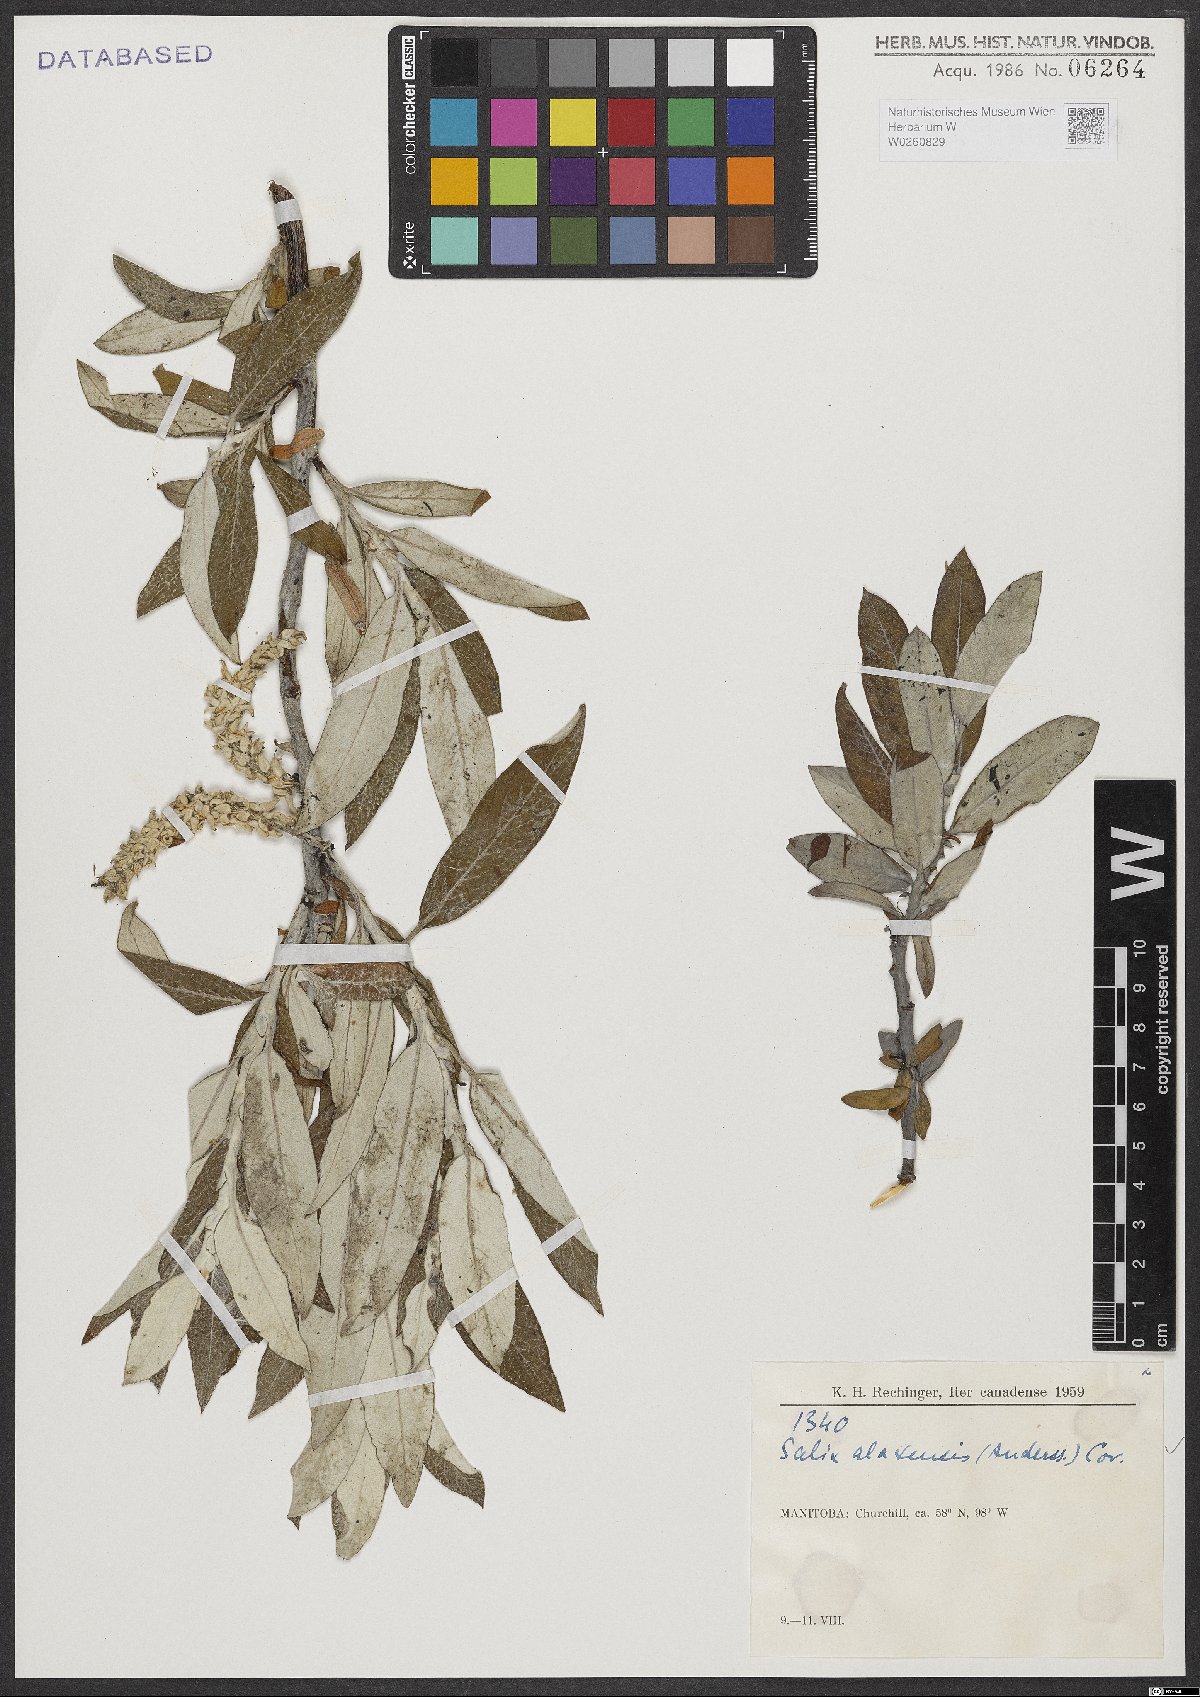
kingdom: Plantae
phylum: Tracheophyta
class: Magnoliopsida
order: Malpighiales
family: Salicaceae
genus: Salix
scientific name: Salix alaxensis
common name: Feltleaf willow
